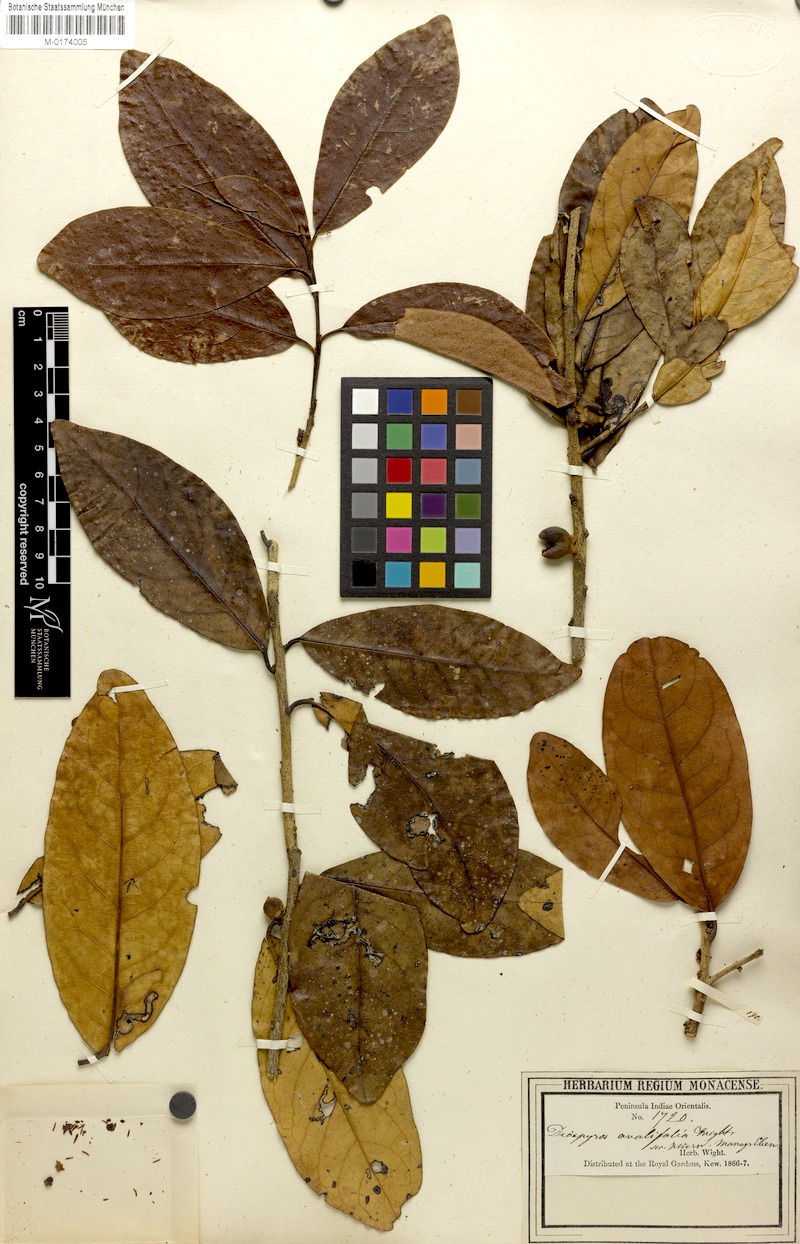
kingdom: Plantae
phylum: Tracheophyta
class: Magnoliopsida
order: Ericales
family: Ebenaceae
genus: Diospyros
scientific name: Diospyros ovalifolia
